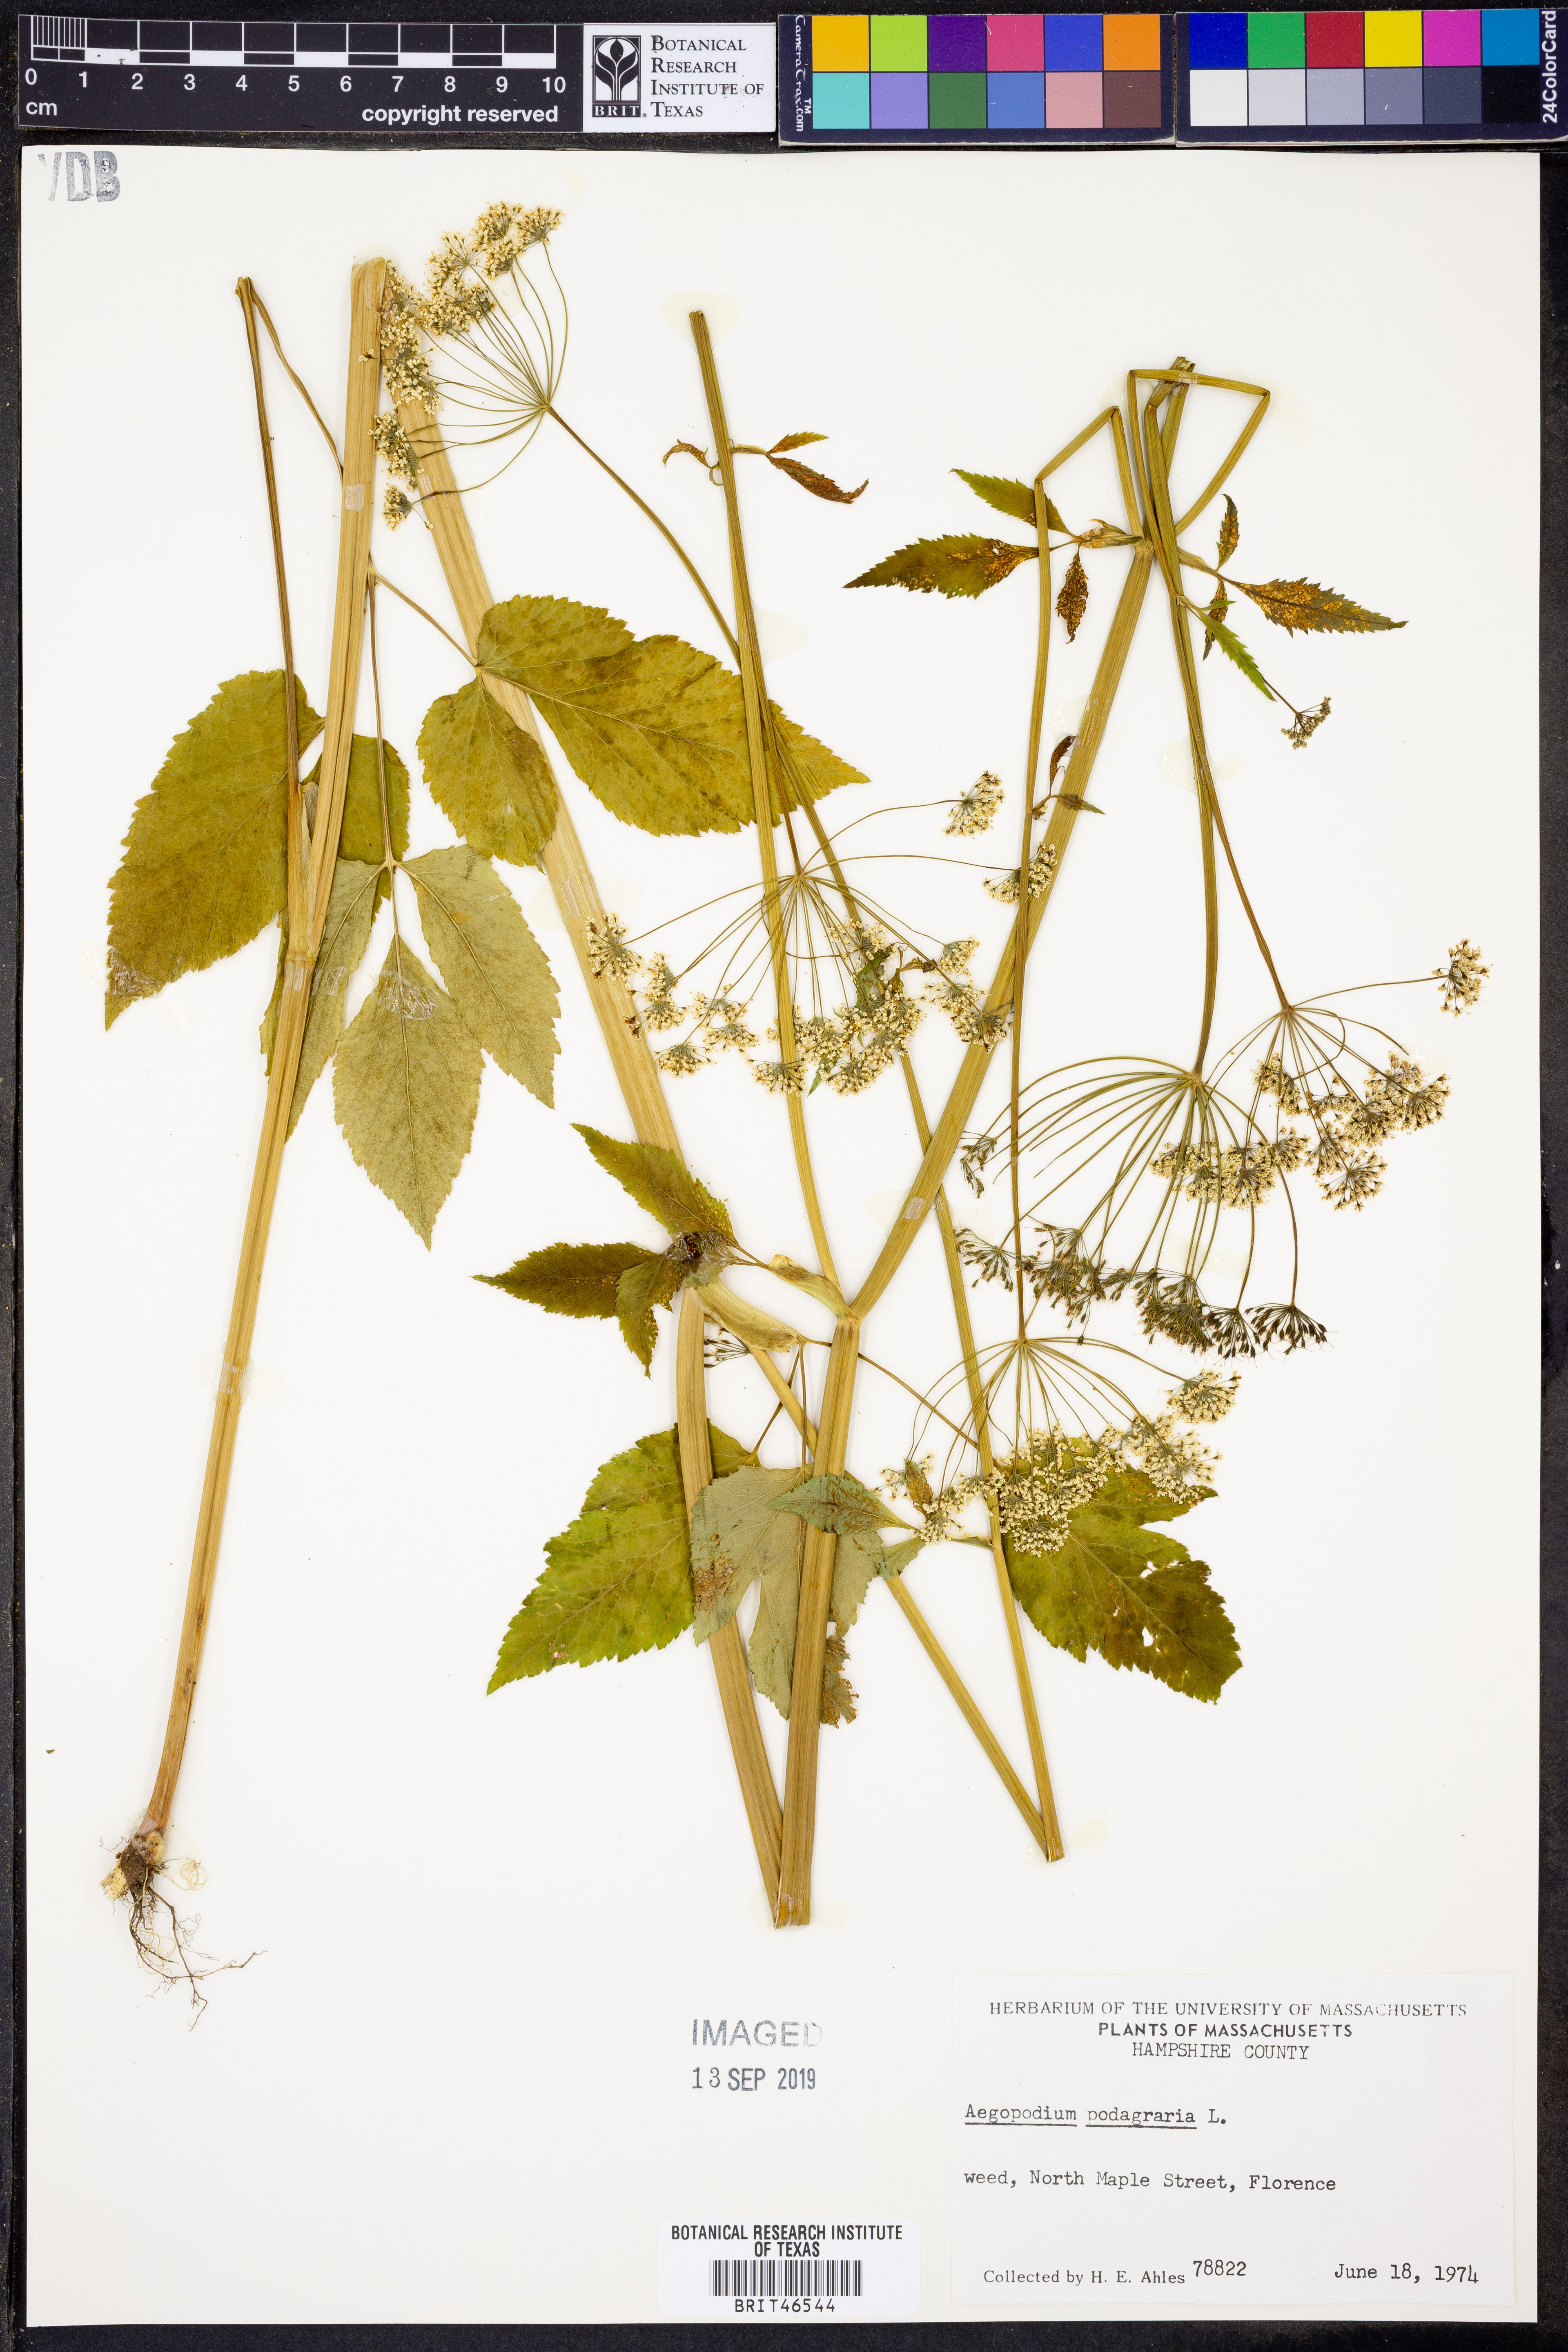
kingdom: Plantae
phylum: Tracheophyta
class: Magnoliopsida
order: Apiales
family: Apiaceae
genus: Aegopodium
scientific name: Aegopodium podagraria
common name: Ground-elder
